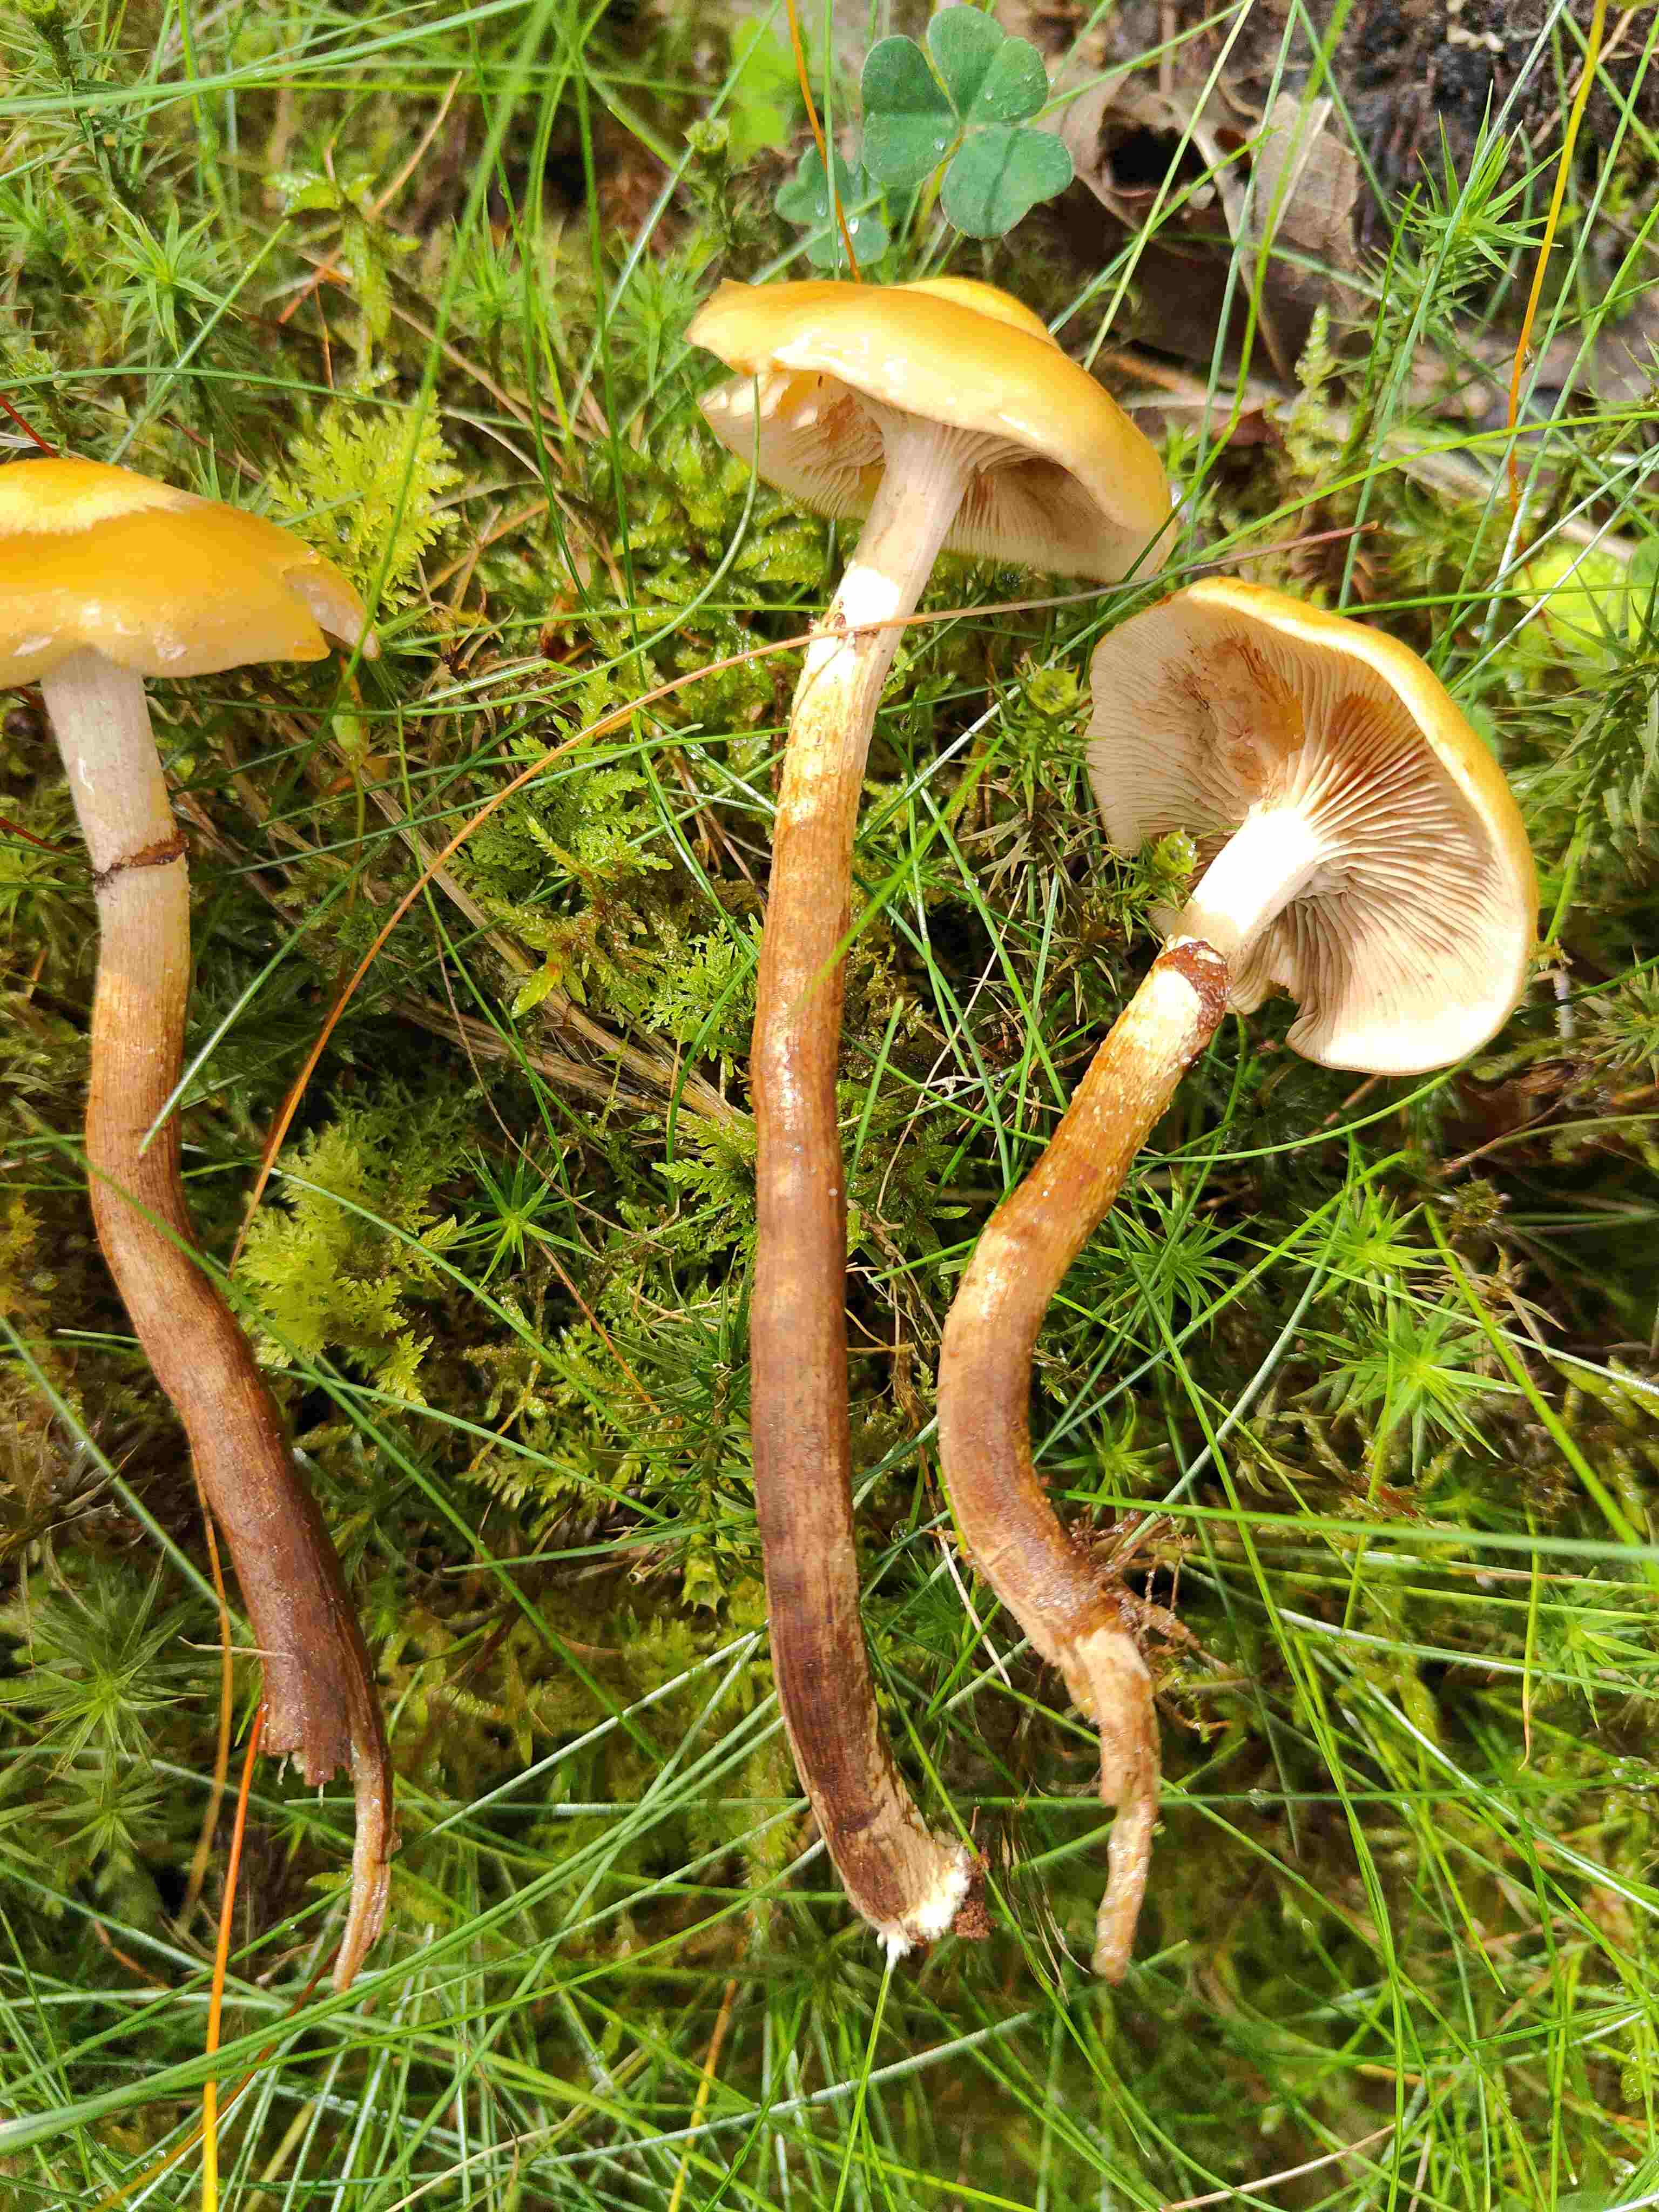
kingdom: Fungi
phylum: Basidiomycota
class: Agaricomycetes
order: Agaricales
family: Strophariaceae
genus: Kuehneromyces
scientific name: Kuehneromyces mutabilis
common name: foranderlig skælhat
